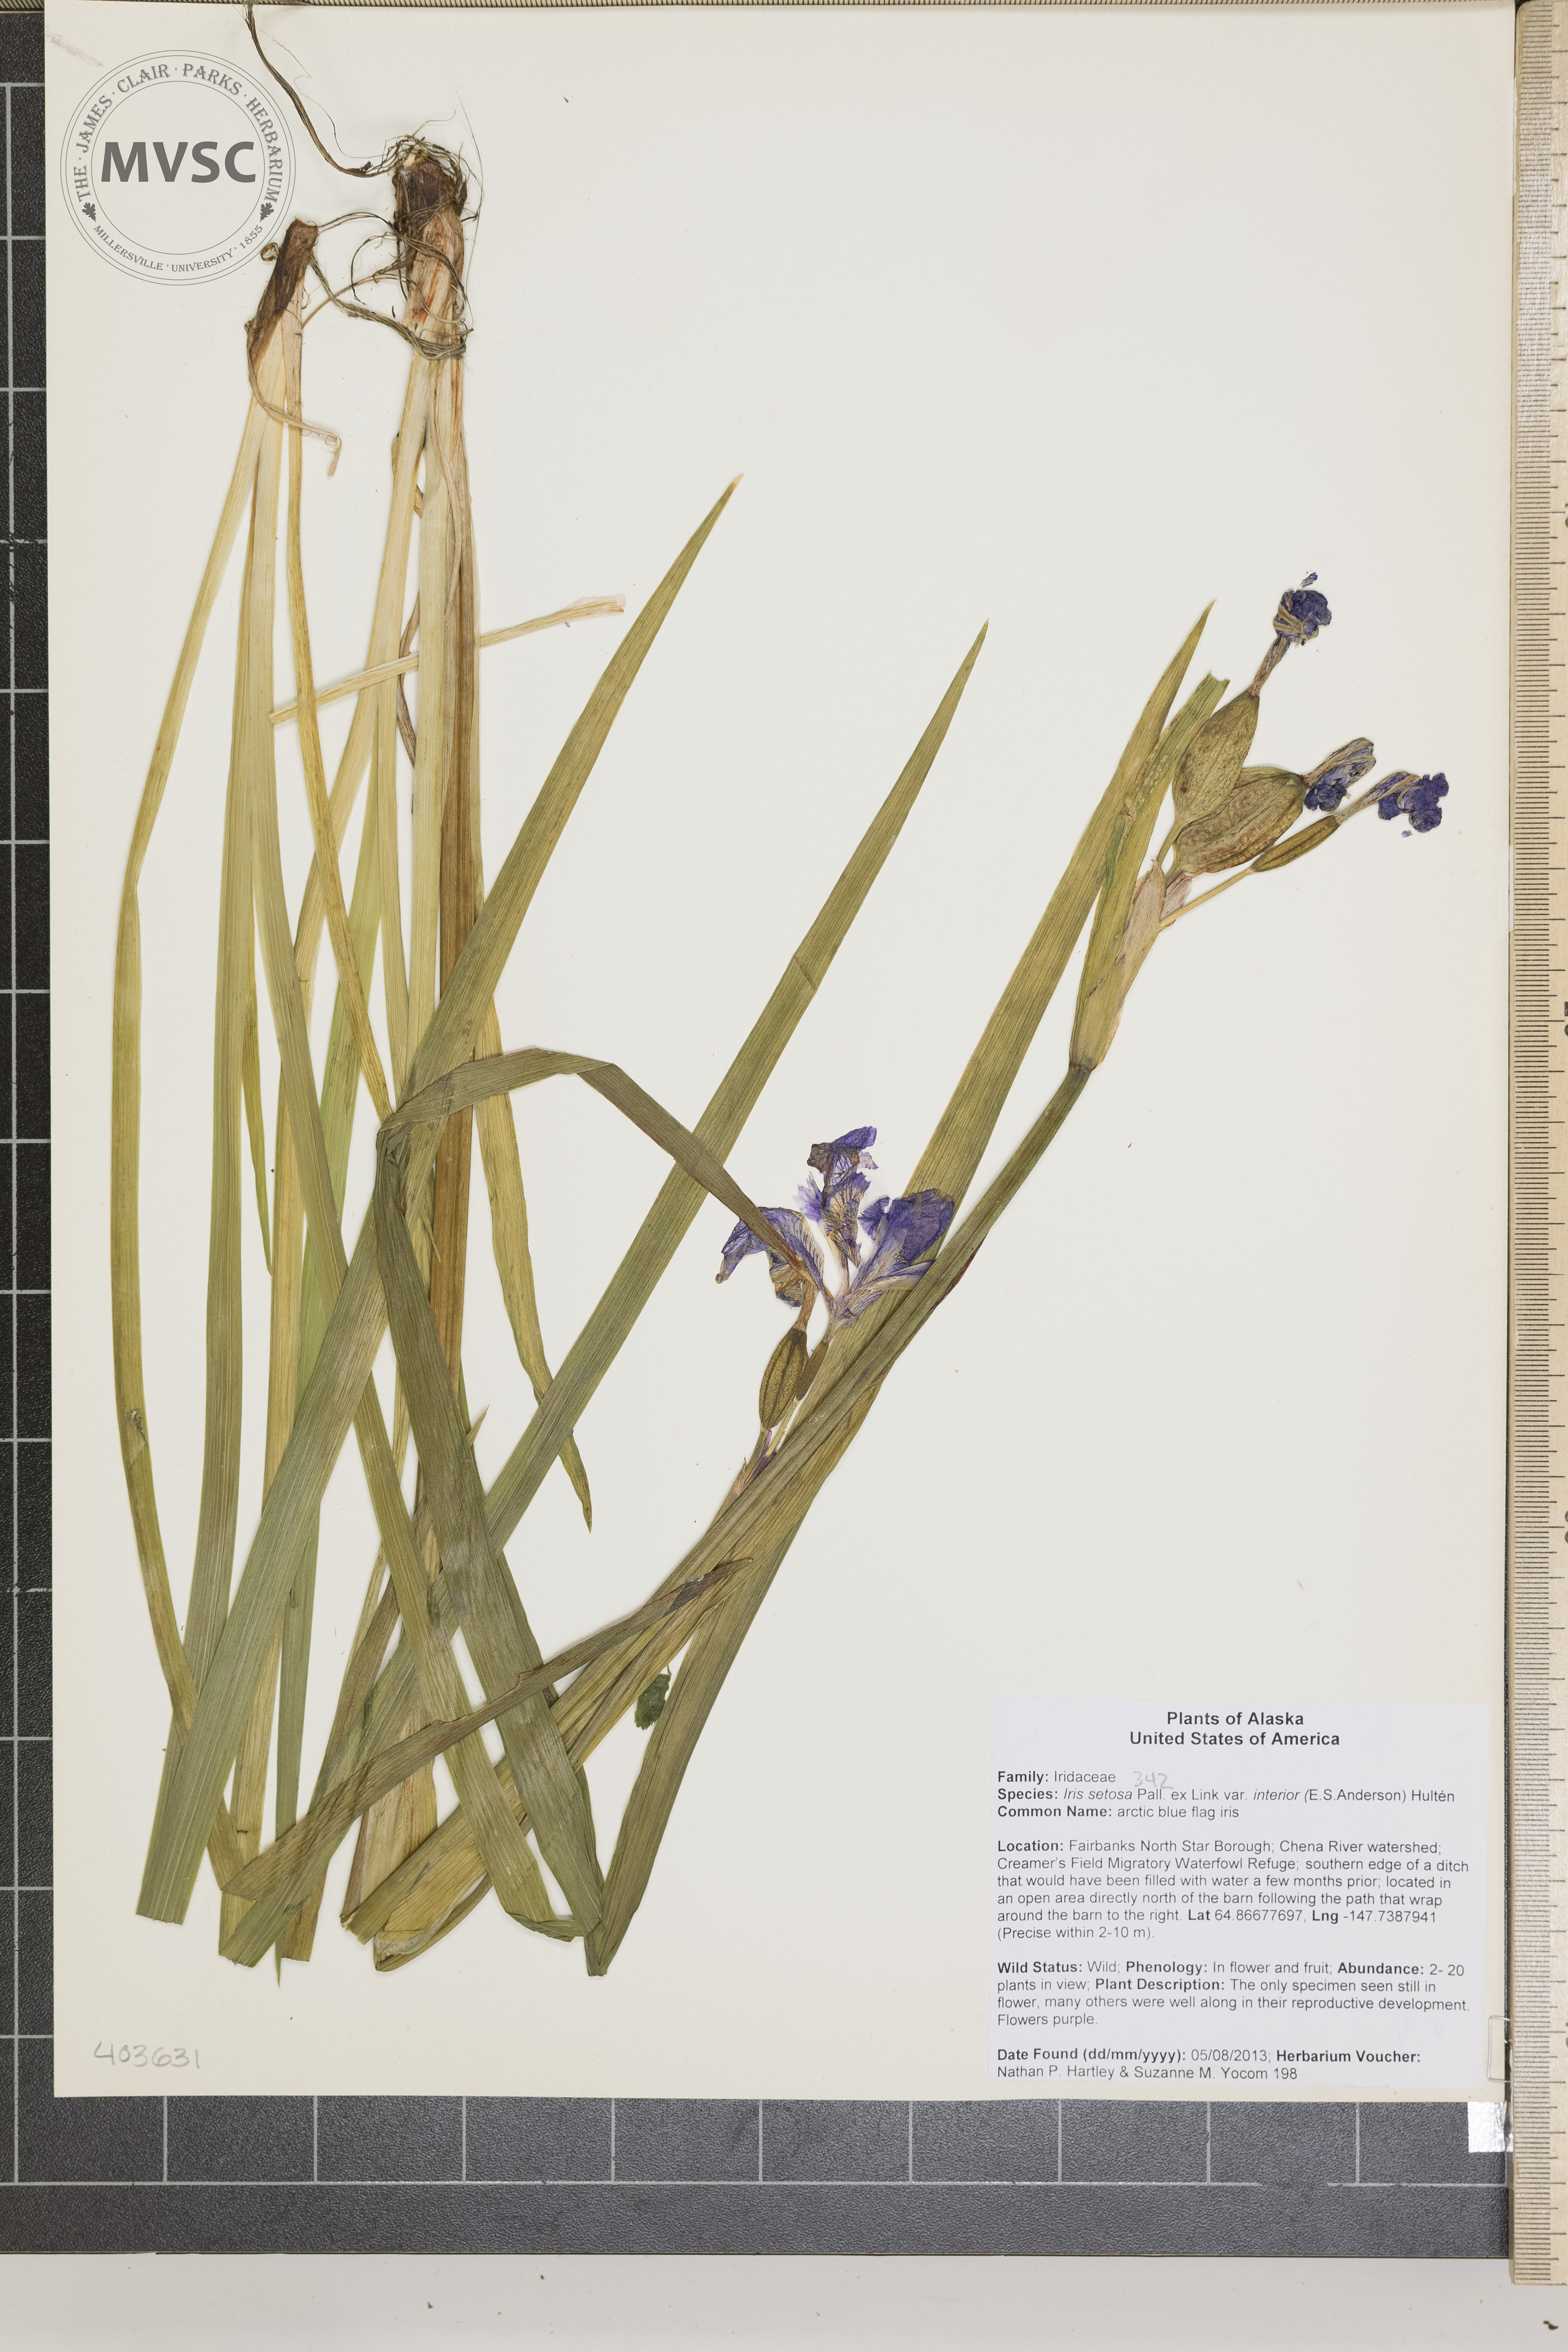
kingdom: Plantae
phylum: Tracheophyta
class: Liliopsida
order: Asparagales
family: Iridaceae
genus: Iris
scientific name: Iris setosa
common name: iris
